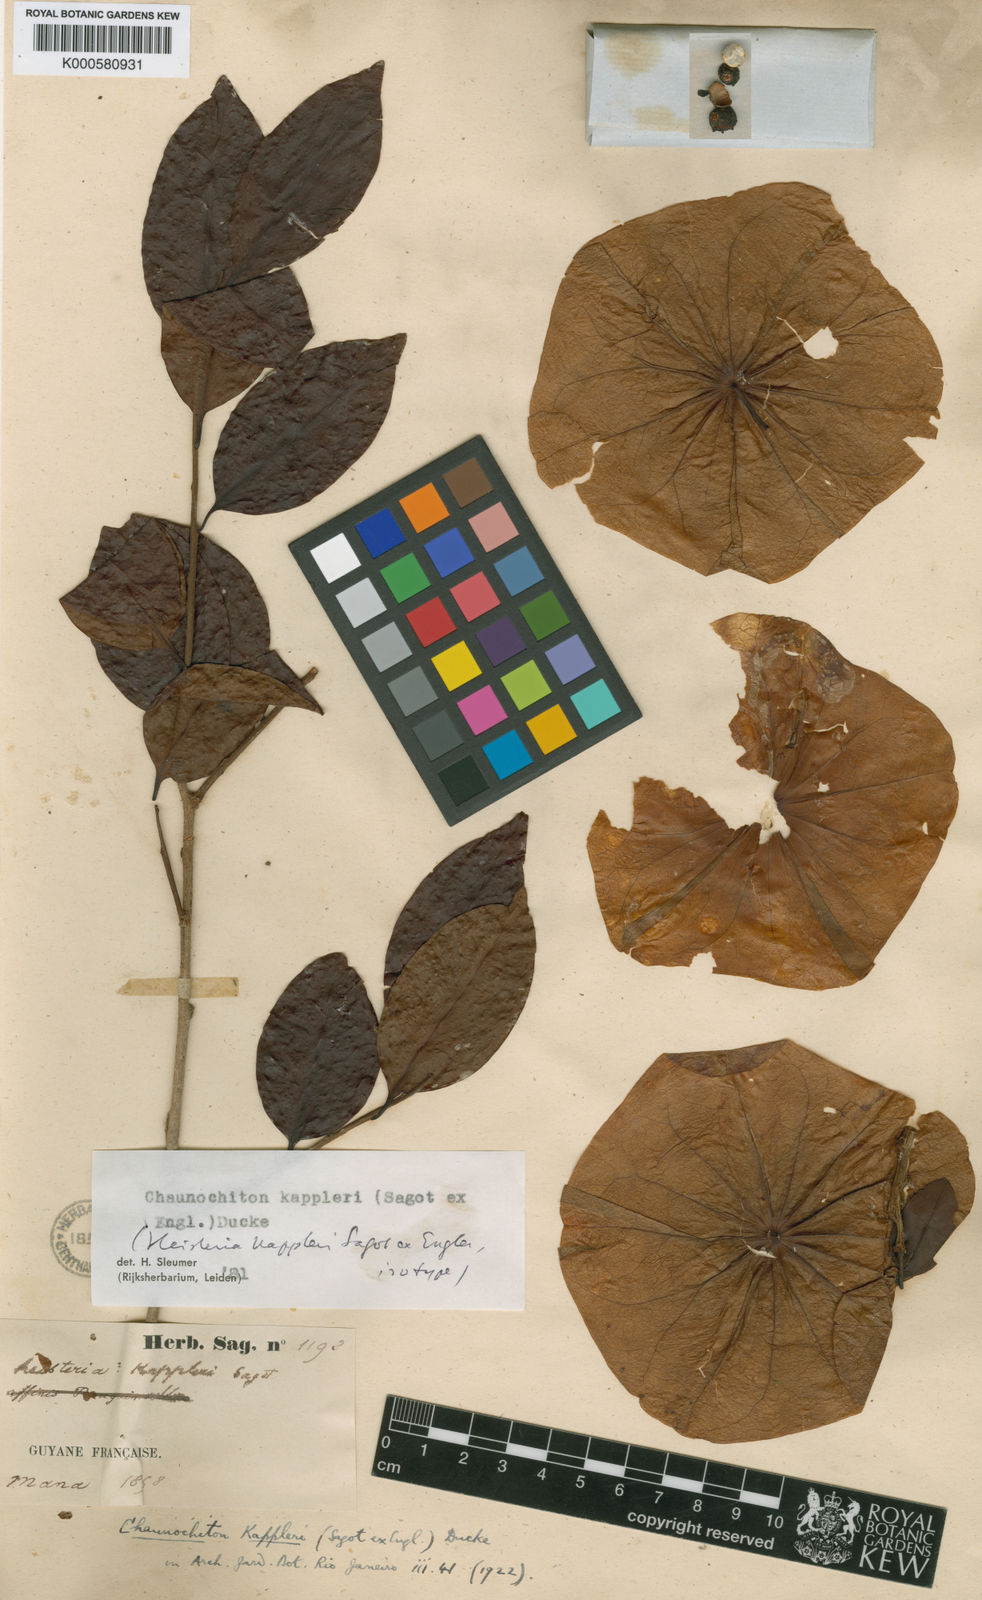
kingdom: Plantae
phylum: Tracheophyta
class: Magnoliopsida
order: Santalales
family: Aptandraceae
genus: Chaunochiton
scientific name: Chaunochiton kappleri
